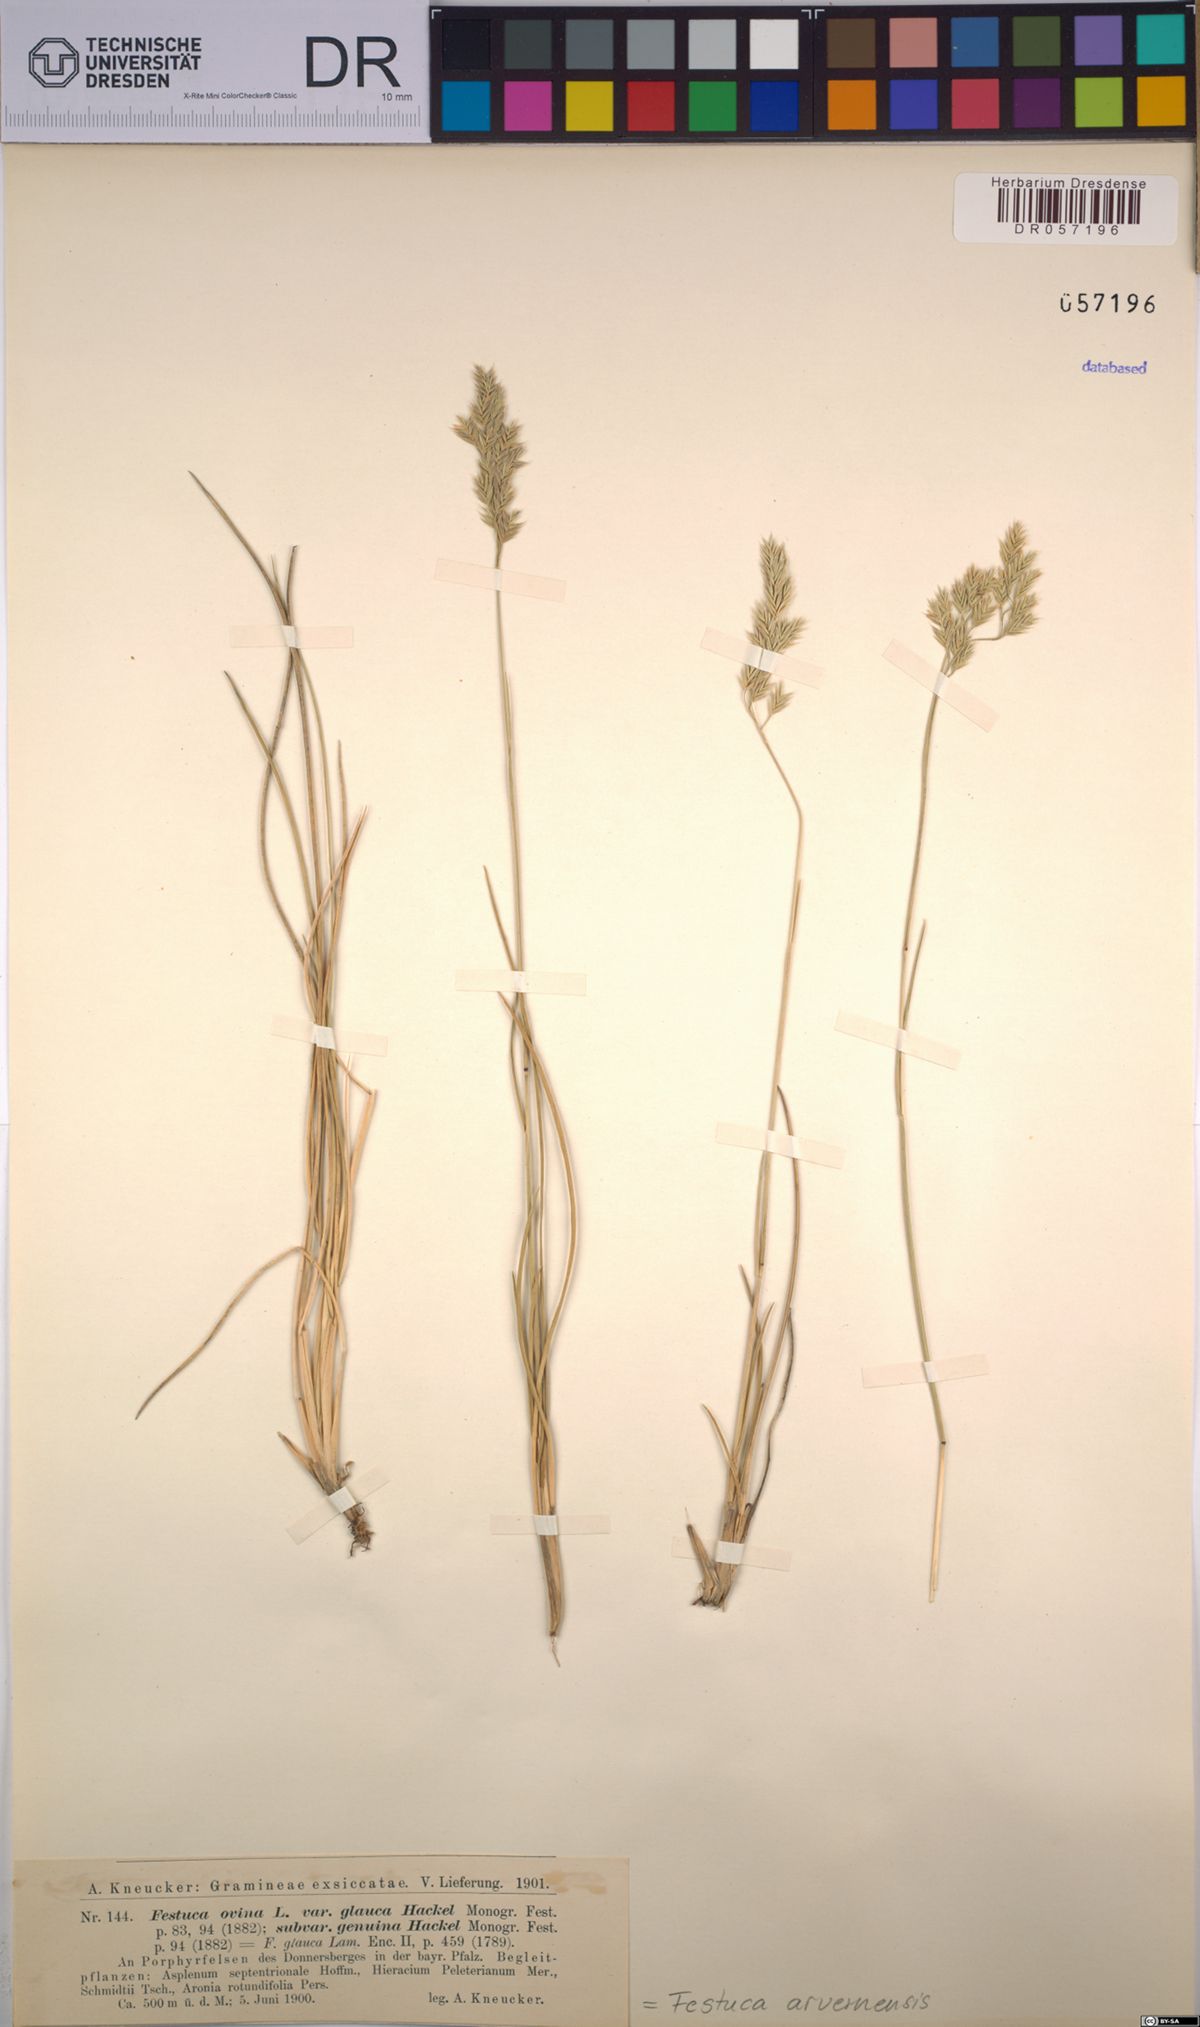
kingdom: Plantae
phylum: Tracheophyta
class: Liliopsida
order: Poales
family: Poaceae
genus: Festuca
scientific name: Festuca arvernensis
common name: Field fescue
